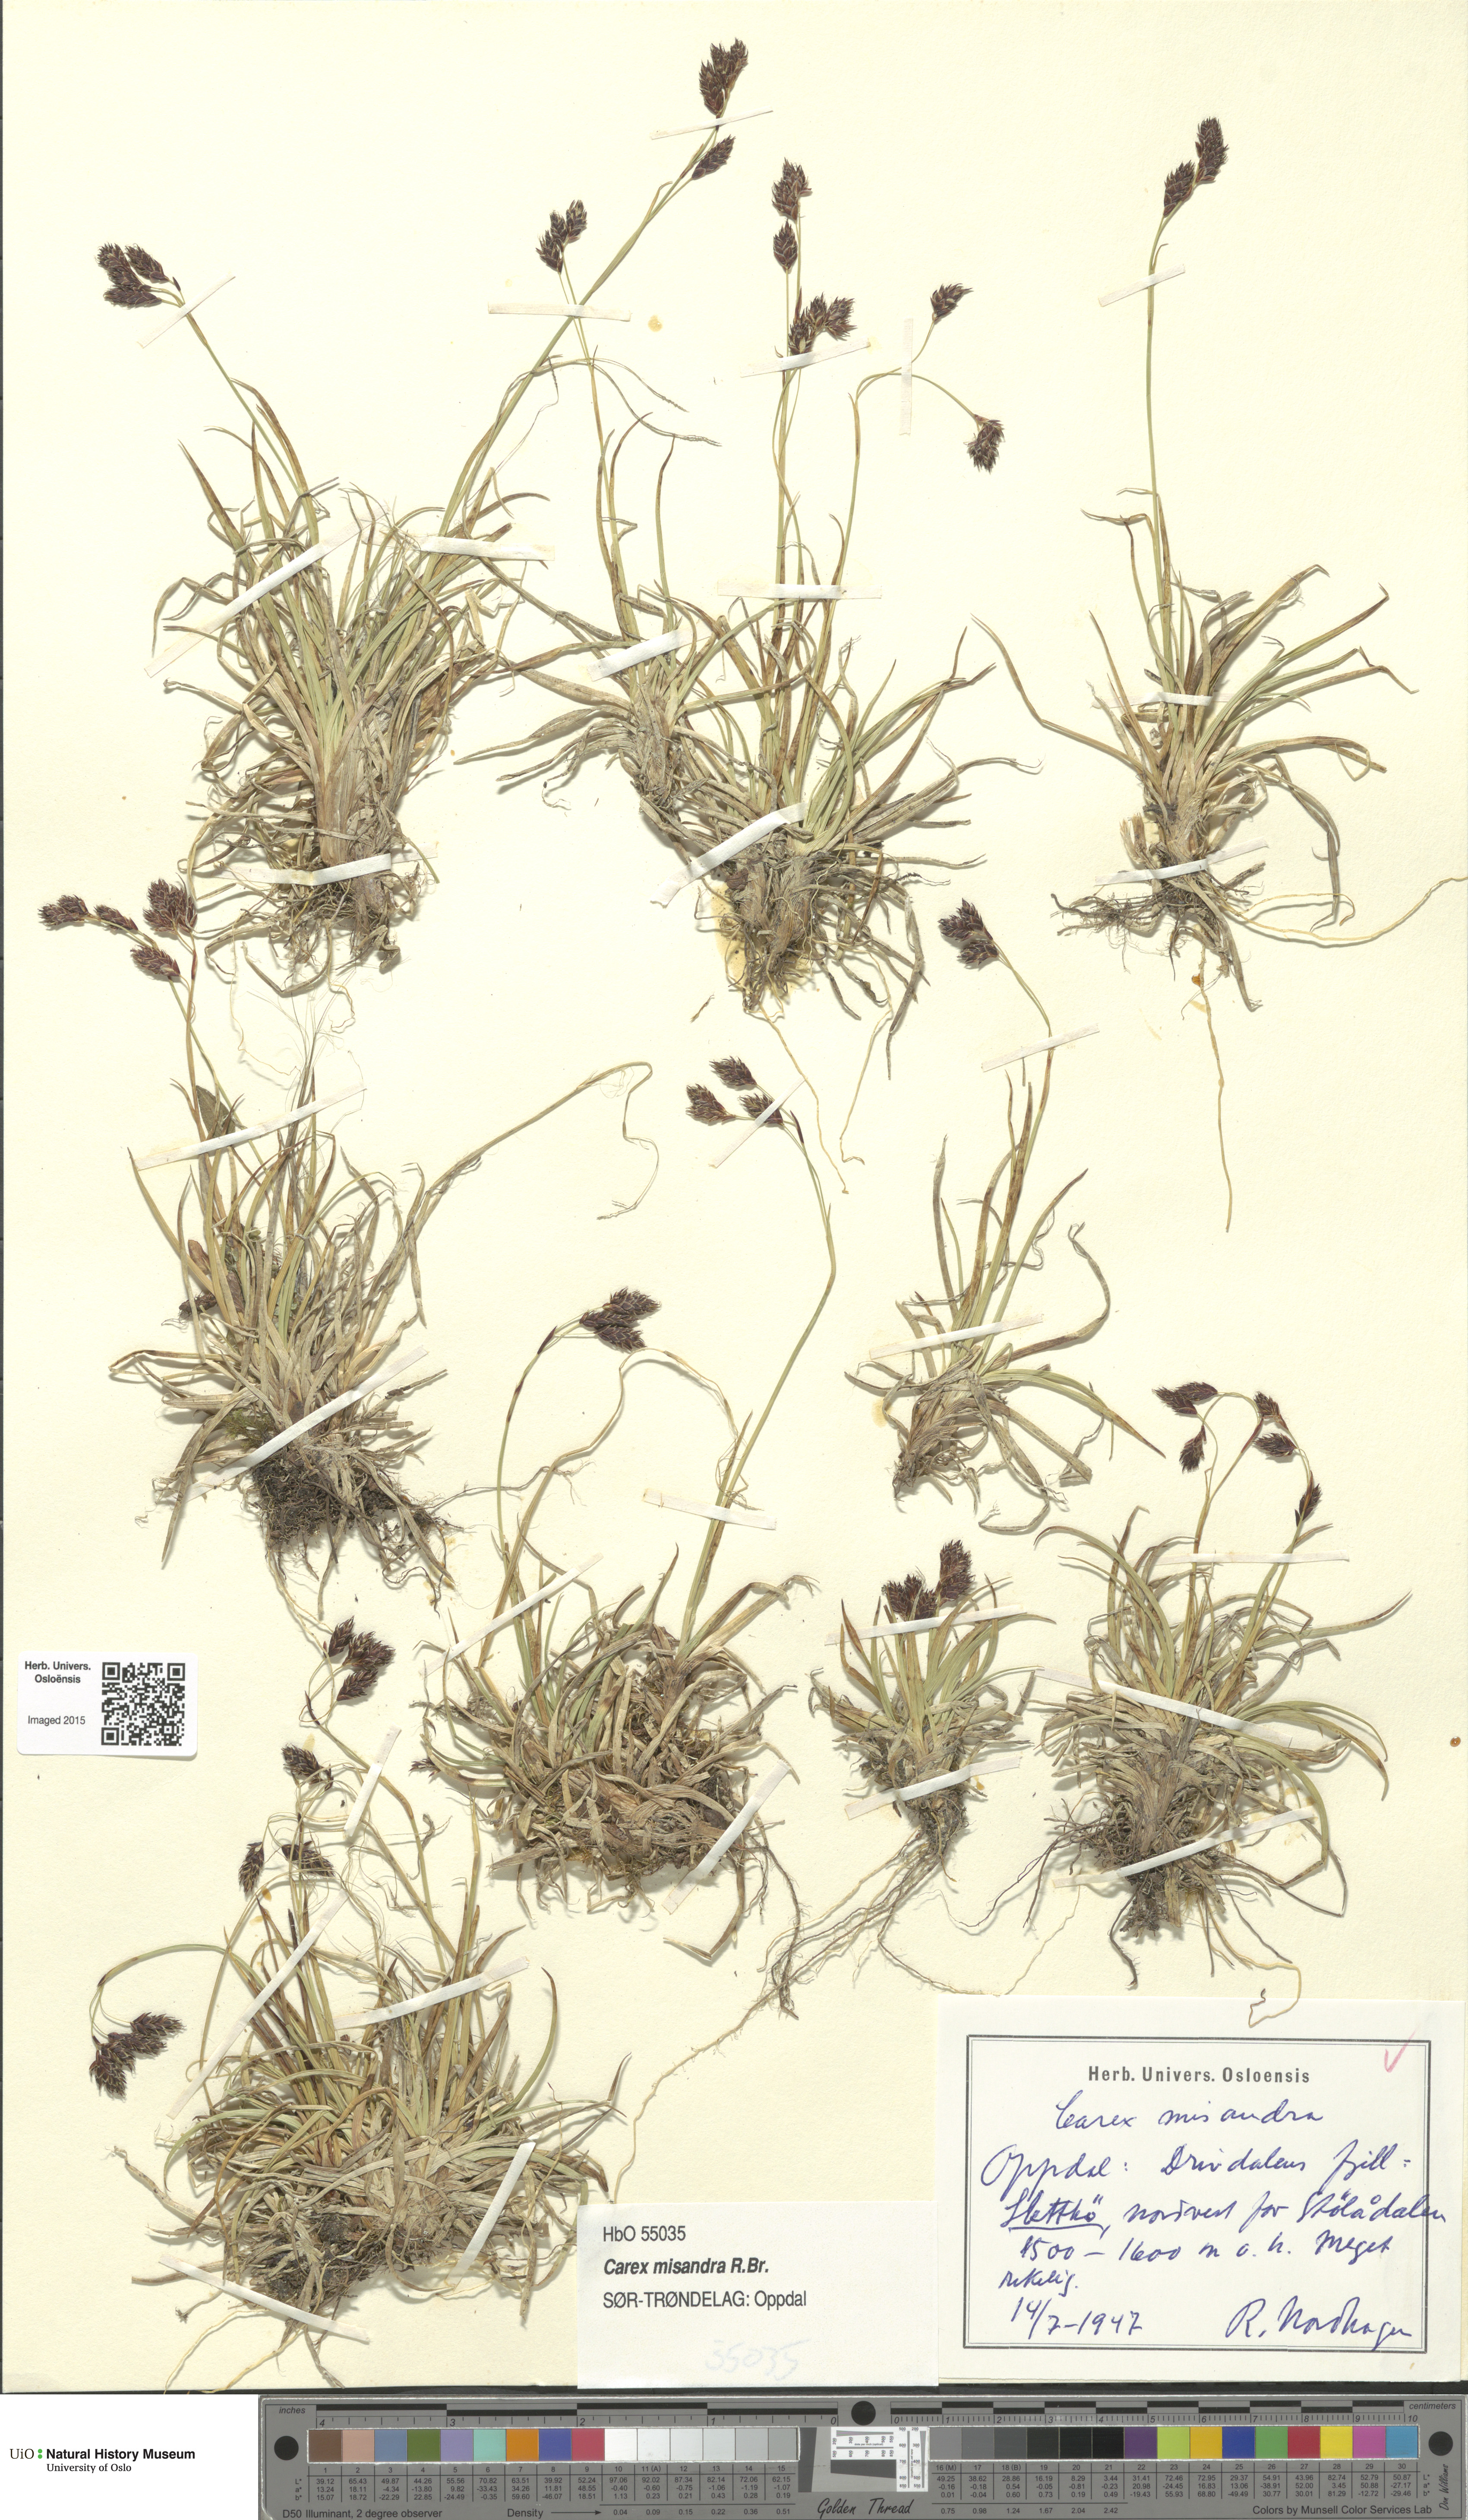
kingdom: Plantae
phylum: Tracheophyta
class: Liliopsida
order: Poales
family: Cyperaceae
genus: Carex
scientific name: Carex fuliginosa
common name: Few-flowered sedge
